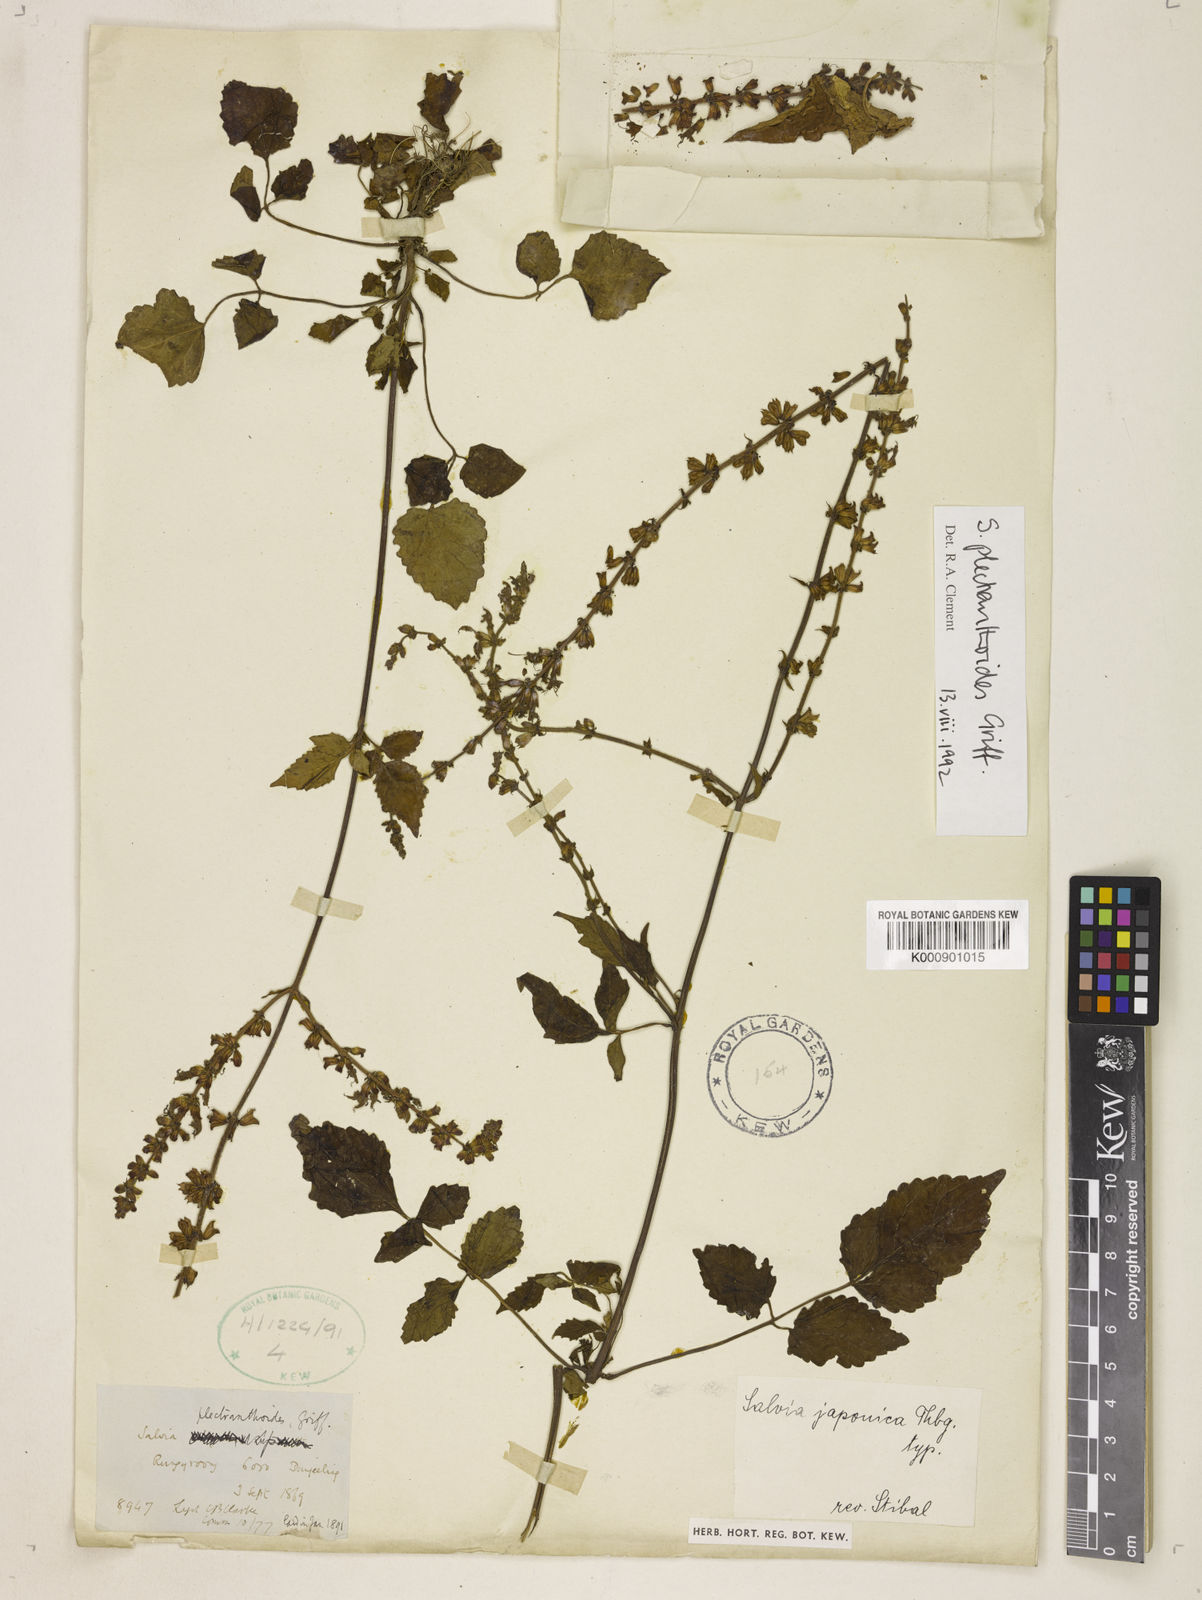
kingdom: Plantae
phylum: Tracheophyta
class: Magnoliopsida
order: Lamiales
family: Lamiaceae
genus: Salvia
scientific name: Salvia plectranthoides
